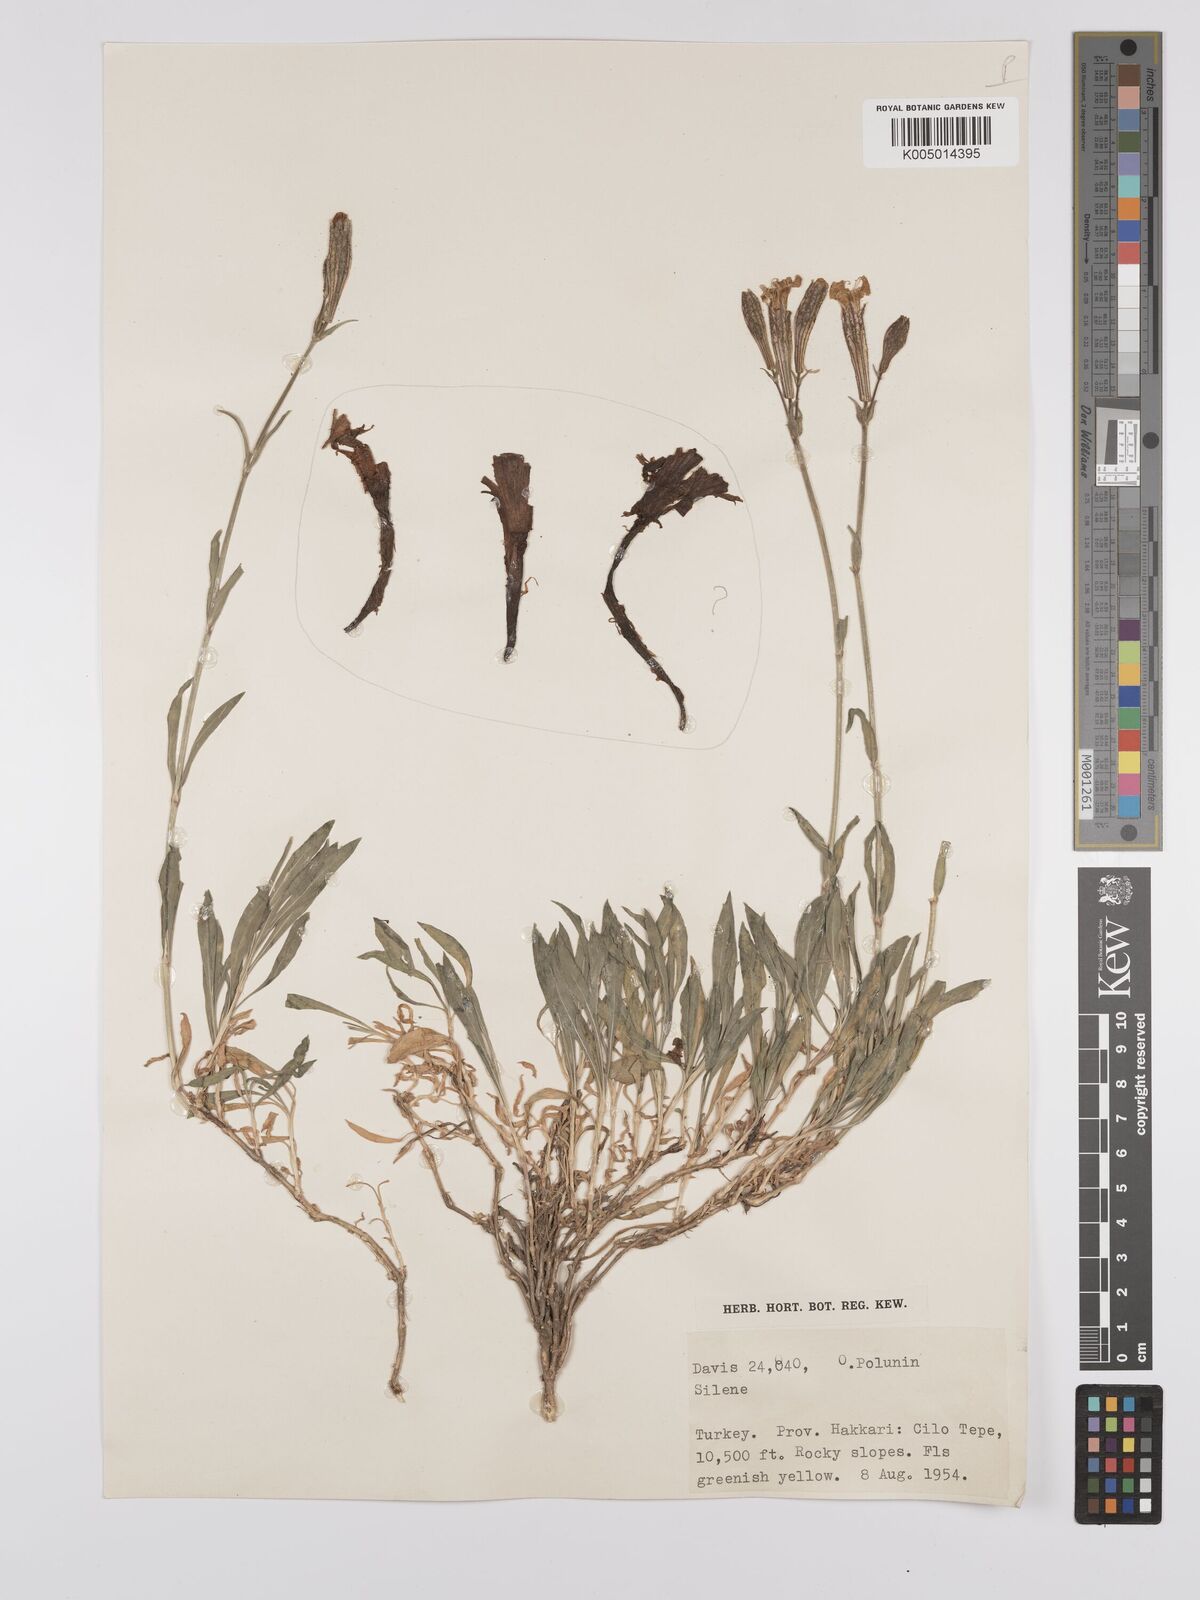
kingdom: Plantae
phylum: Tracheophyta
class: Magnoliopsida
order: Caryophyllales
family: Caryophyllaceae
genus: Silene
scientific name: Silene
